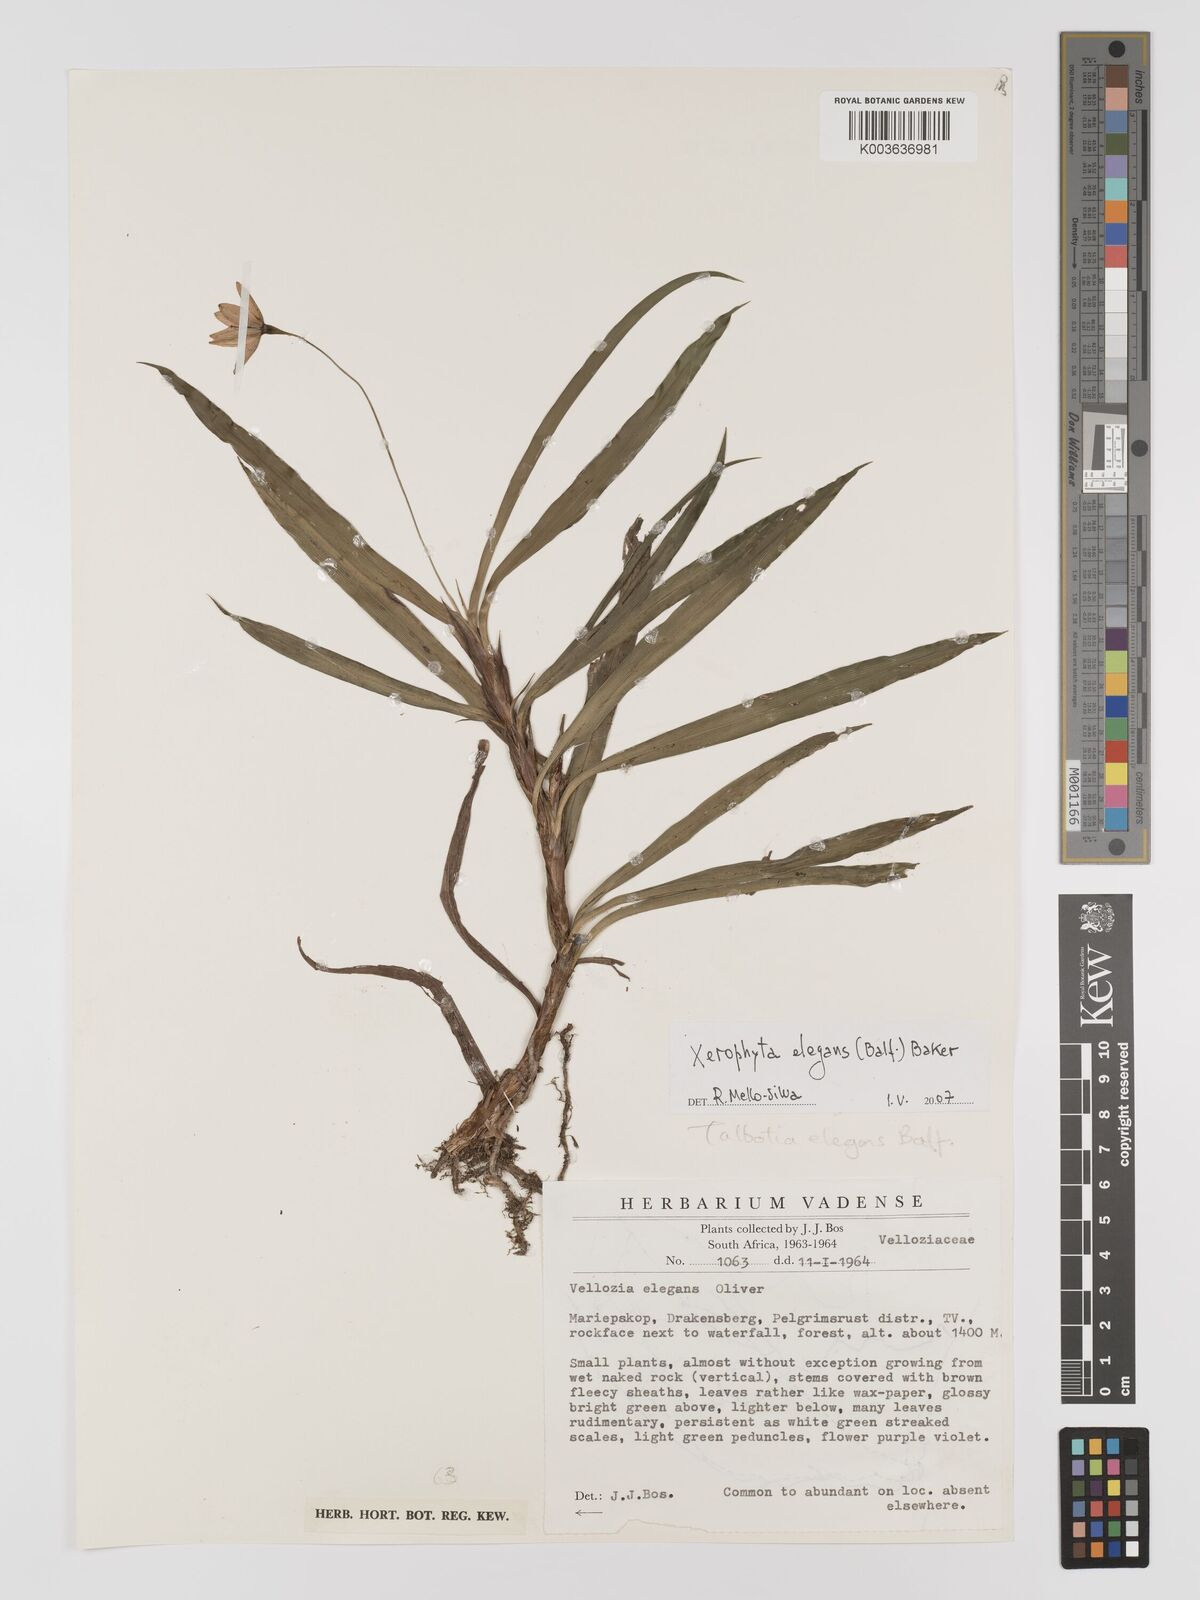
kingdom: Plantae
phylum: Tracheophyta
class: Liliopsida
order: Pandanales
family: Velloziaceae
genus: Xerophyta
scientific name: Xerophyta elegans
